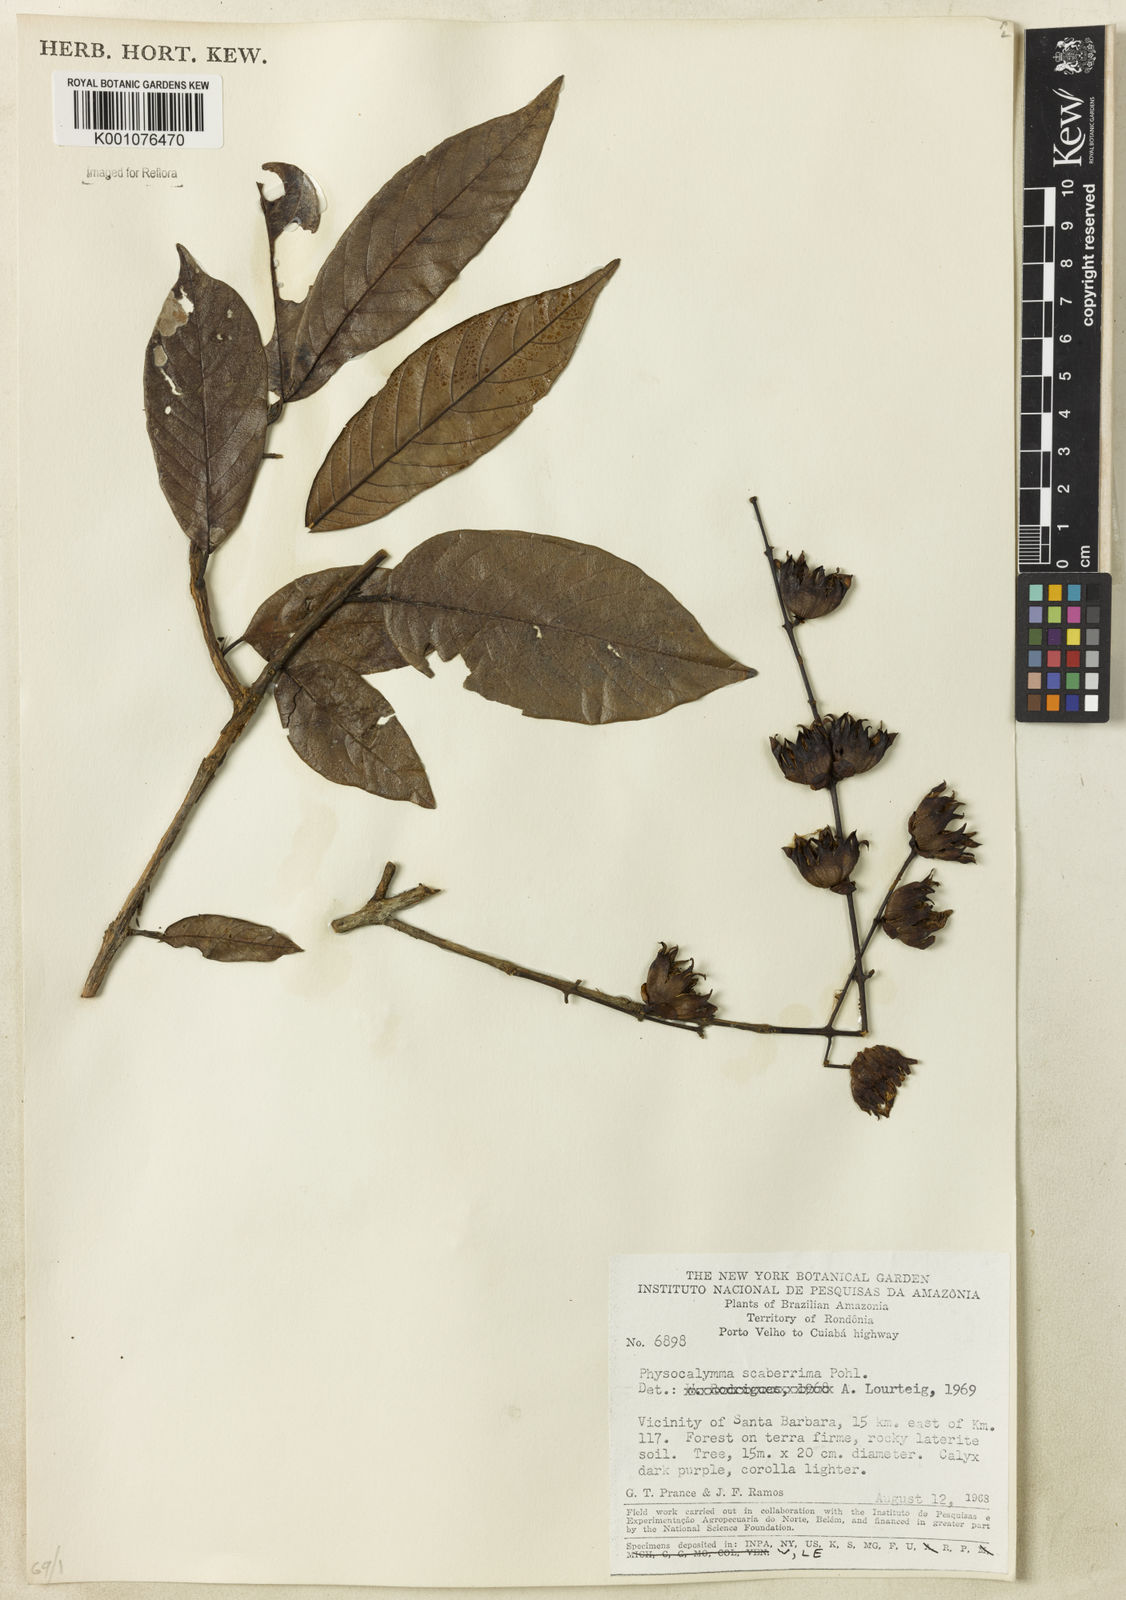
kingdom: Plantae
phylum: Tracheophyta
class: Magnoliopsida
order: Myrtales
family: Lythraceae
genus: Physocalymma
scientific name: Physocalymma scaberrimum
